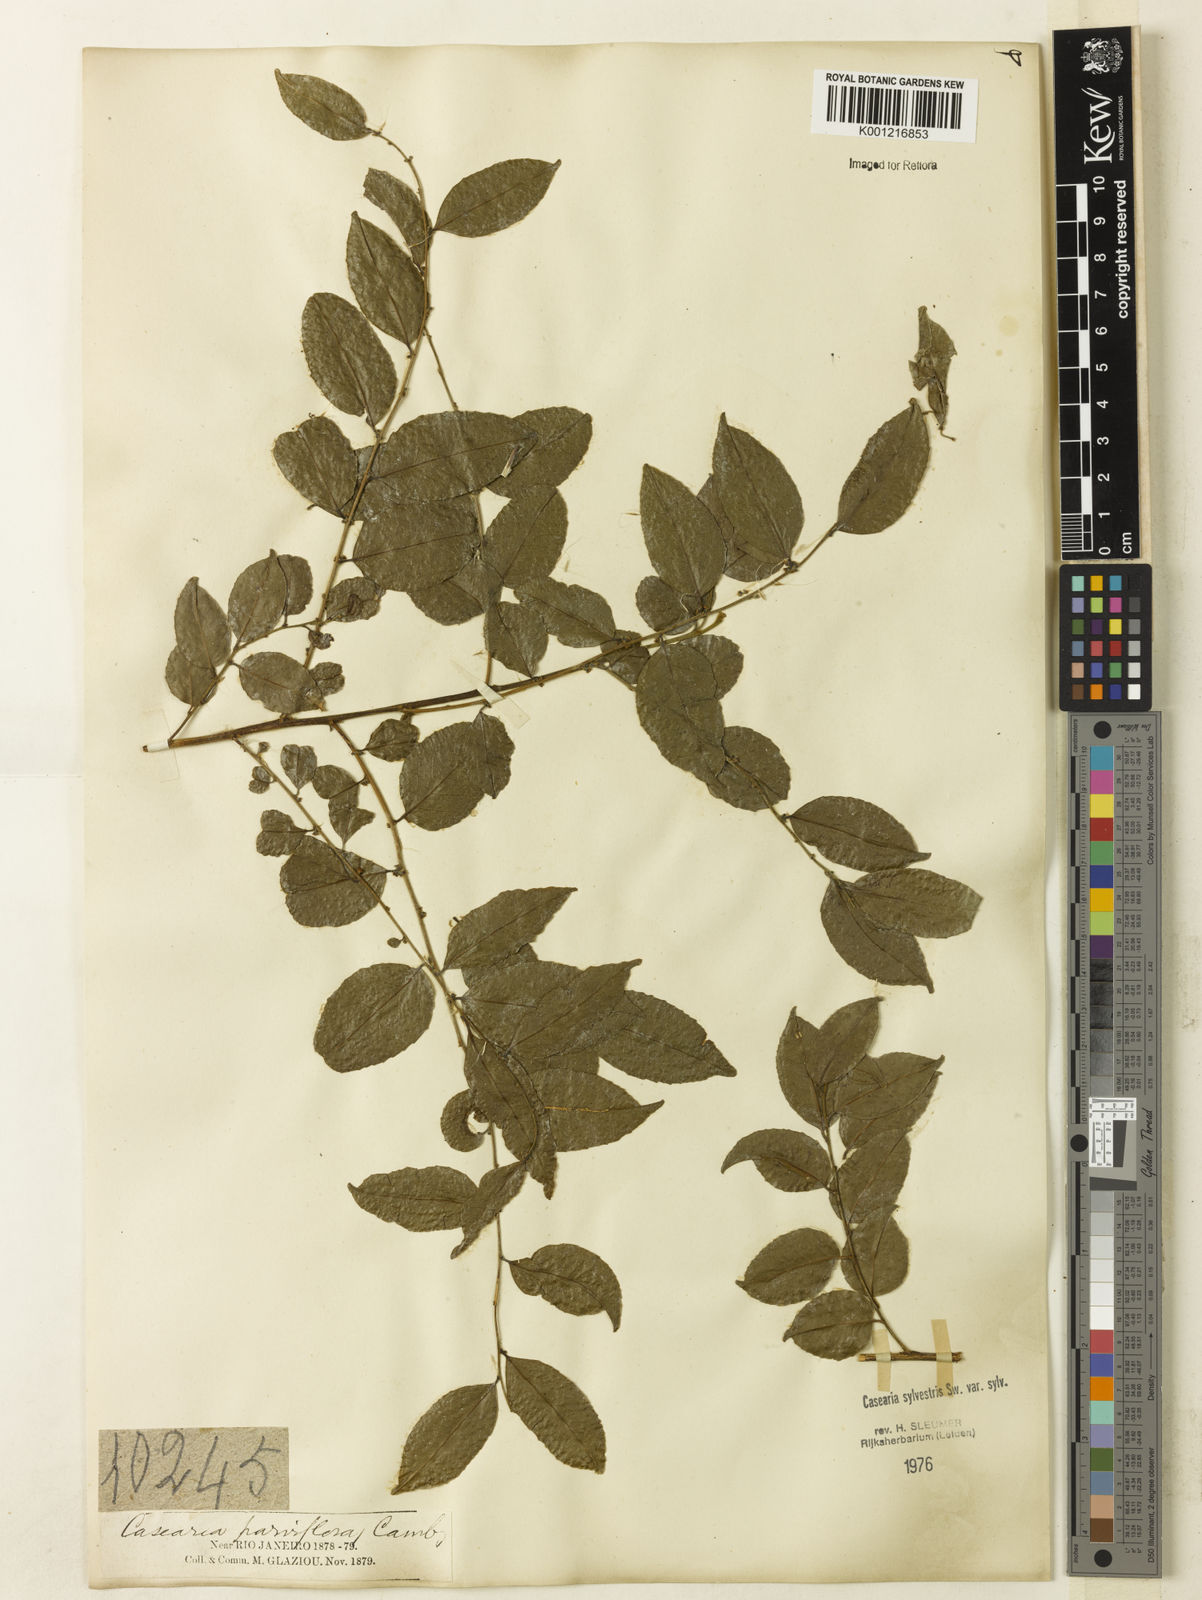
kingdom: Plantae
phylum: Tracheophyta
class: Magnoliopsida
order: Malpighiales
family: Salicaceae
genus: Casearia
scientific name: Casearia sylvestris
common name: Wild sage
